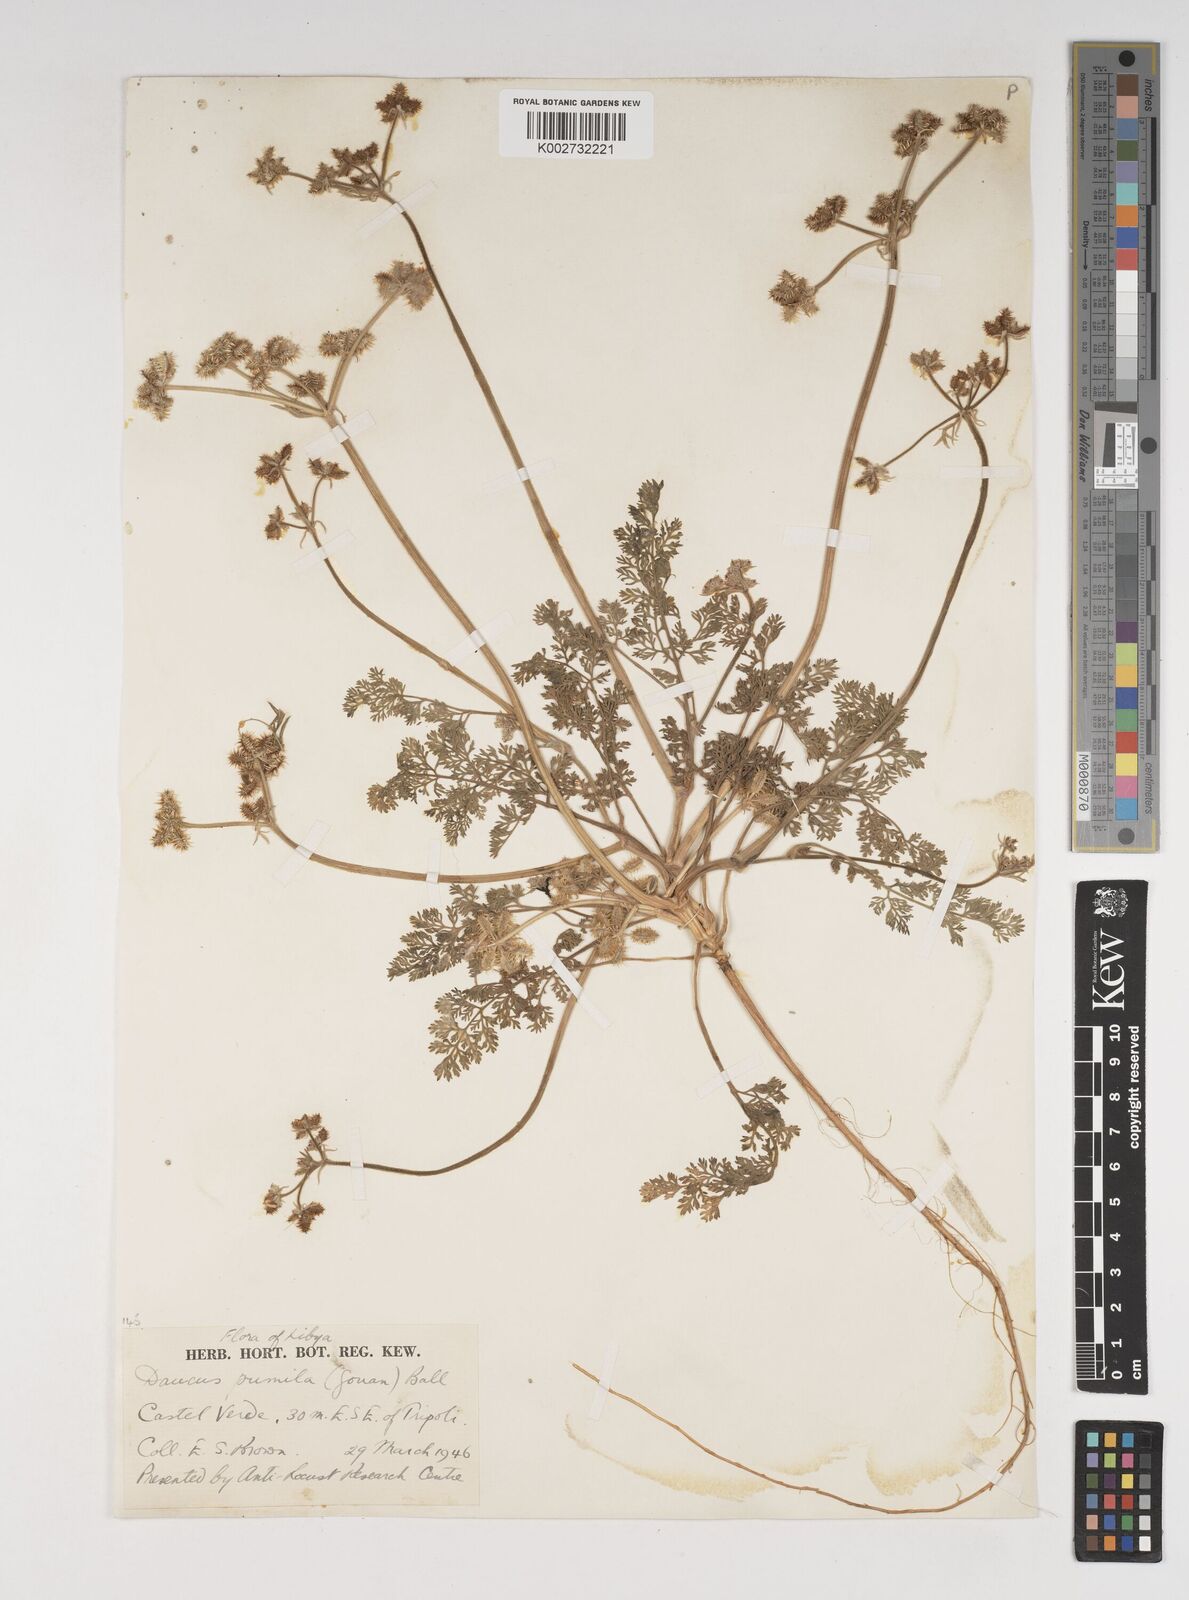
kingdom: Plantae
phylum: Tracheophyta
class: Magnoliopsida
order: Apiales
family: Apiaceae
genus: Daucus
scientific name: Daucus pumilus
